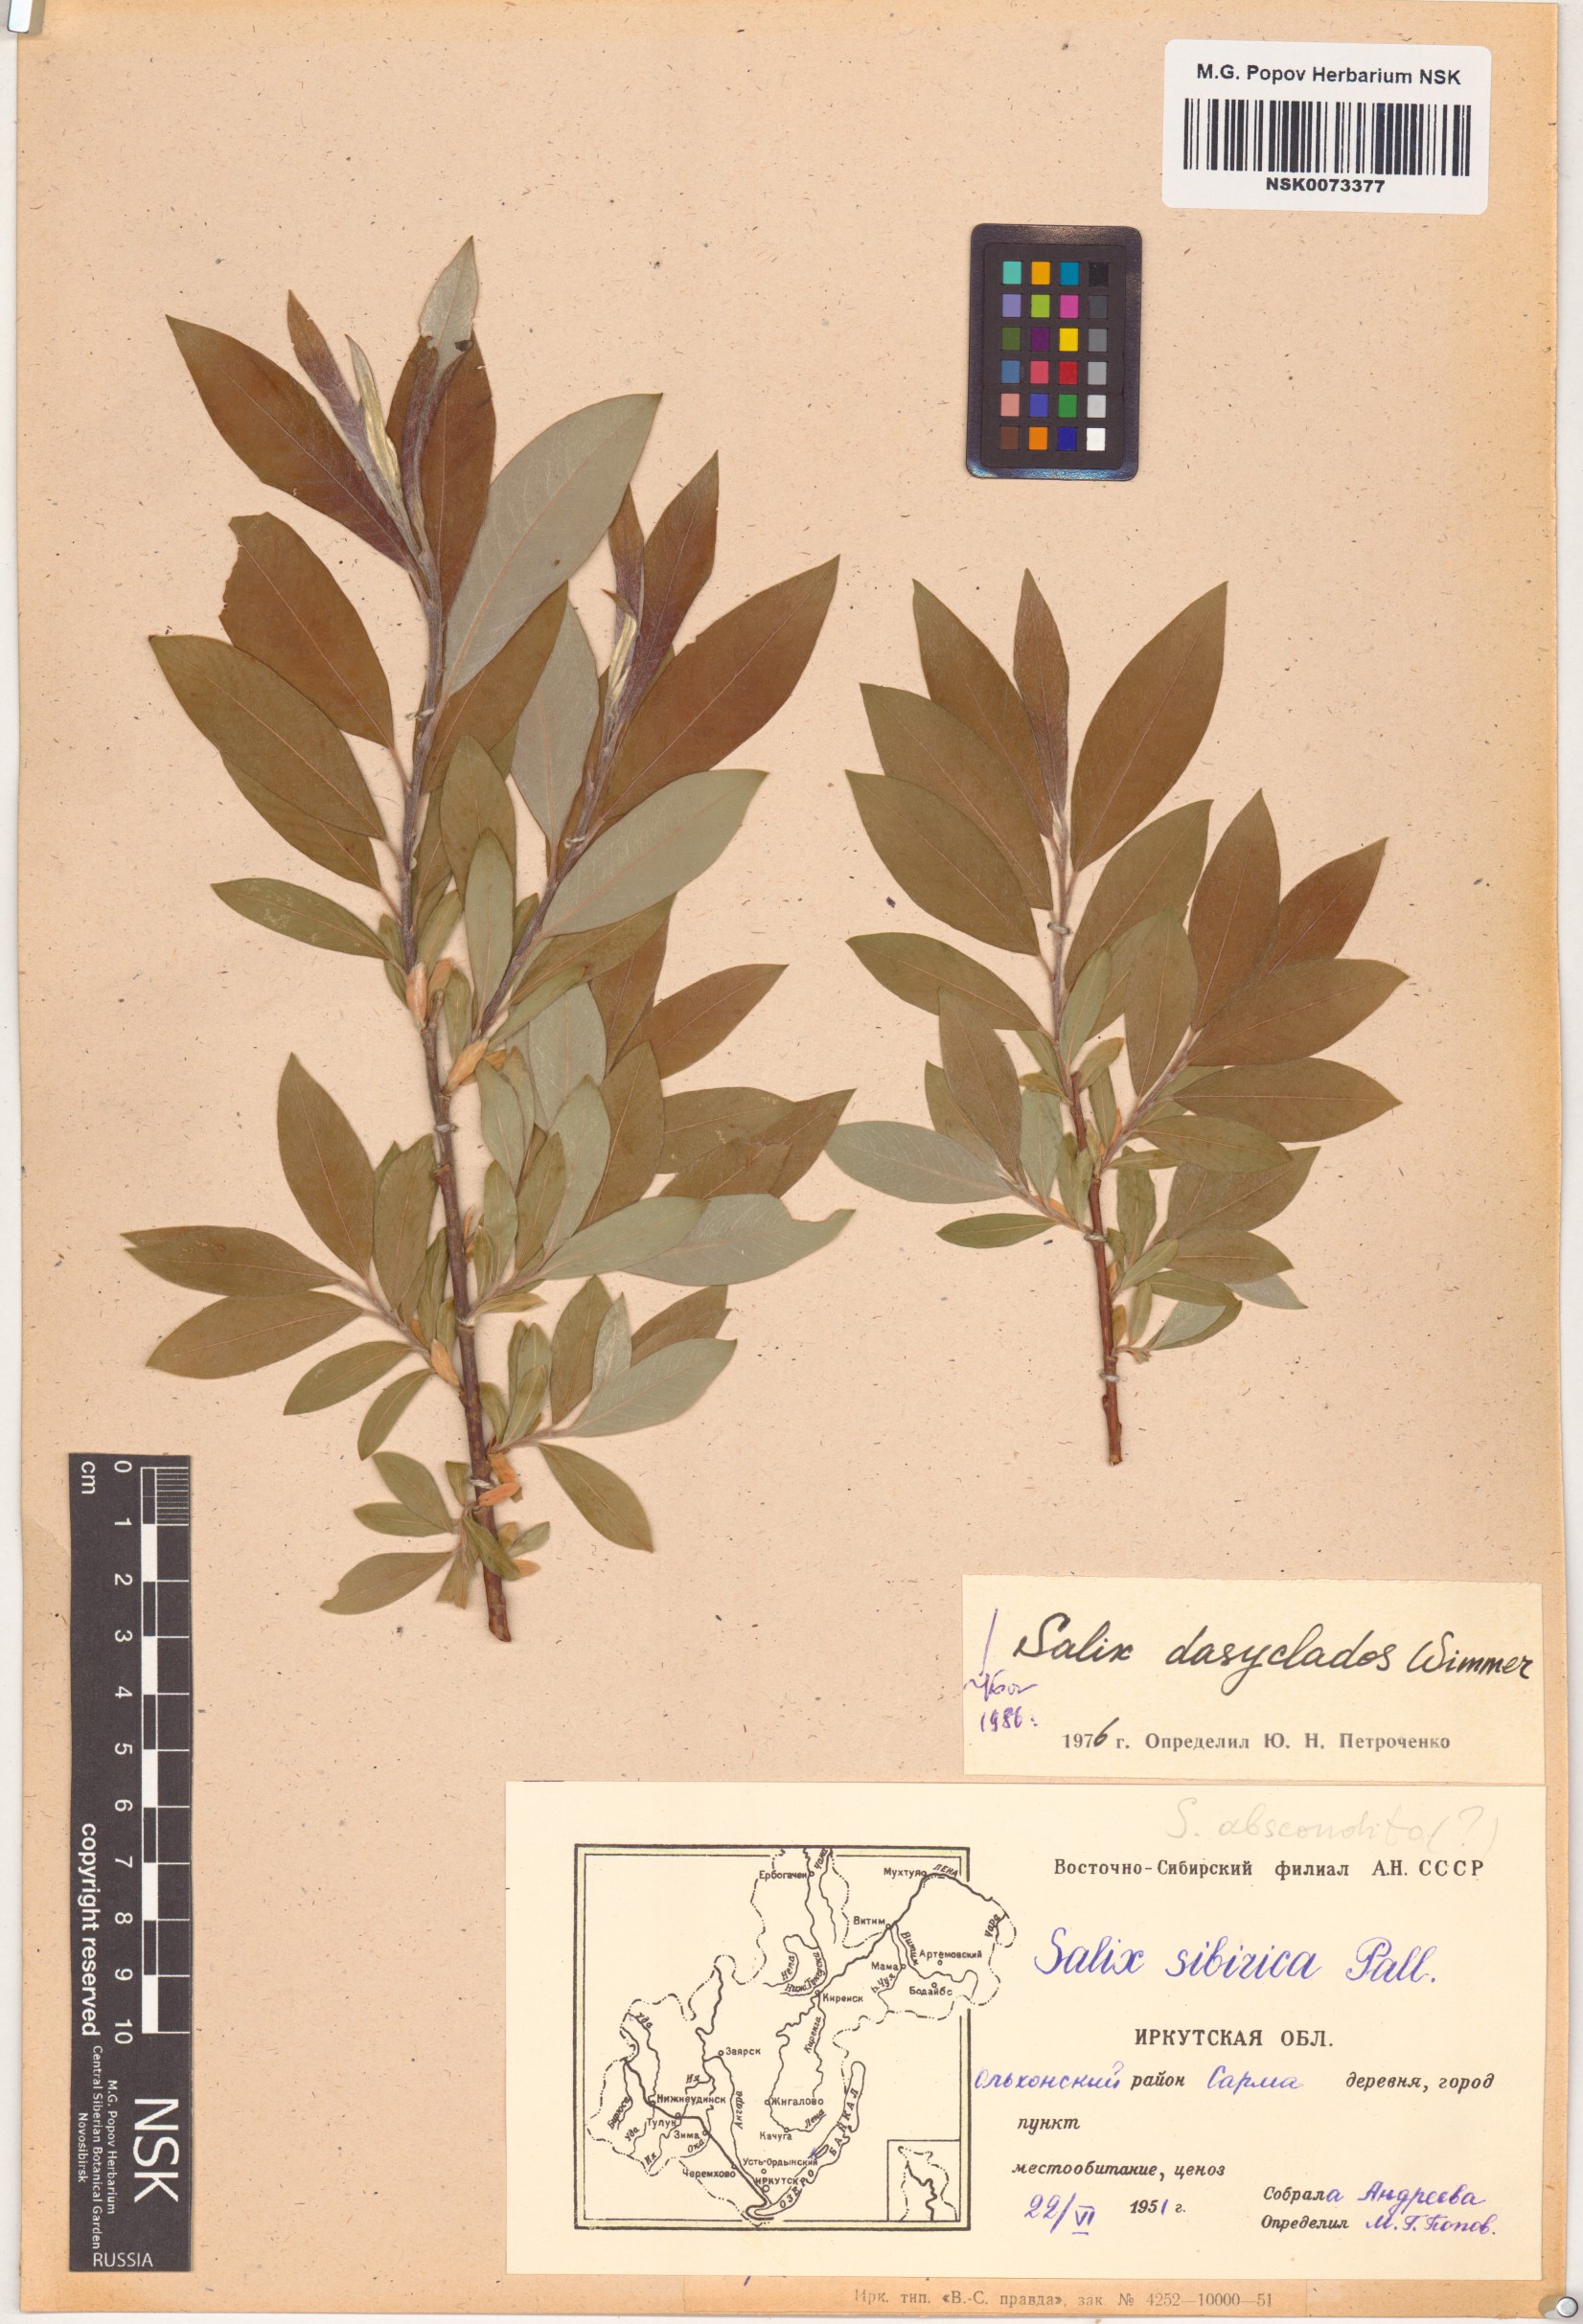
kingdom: Plantae
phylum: Tracheophyta
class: Magnoliopsida
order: Malpighiales
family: Salicaceae
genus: Salix
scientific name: Salix gmelinii
